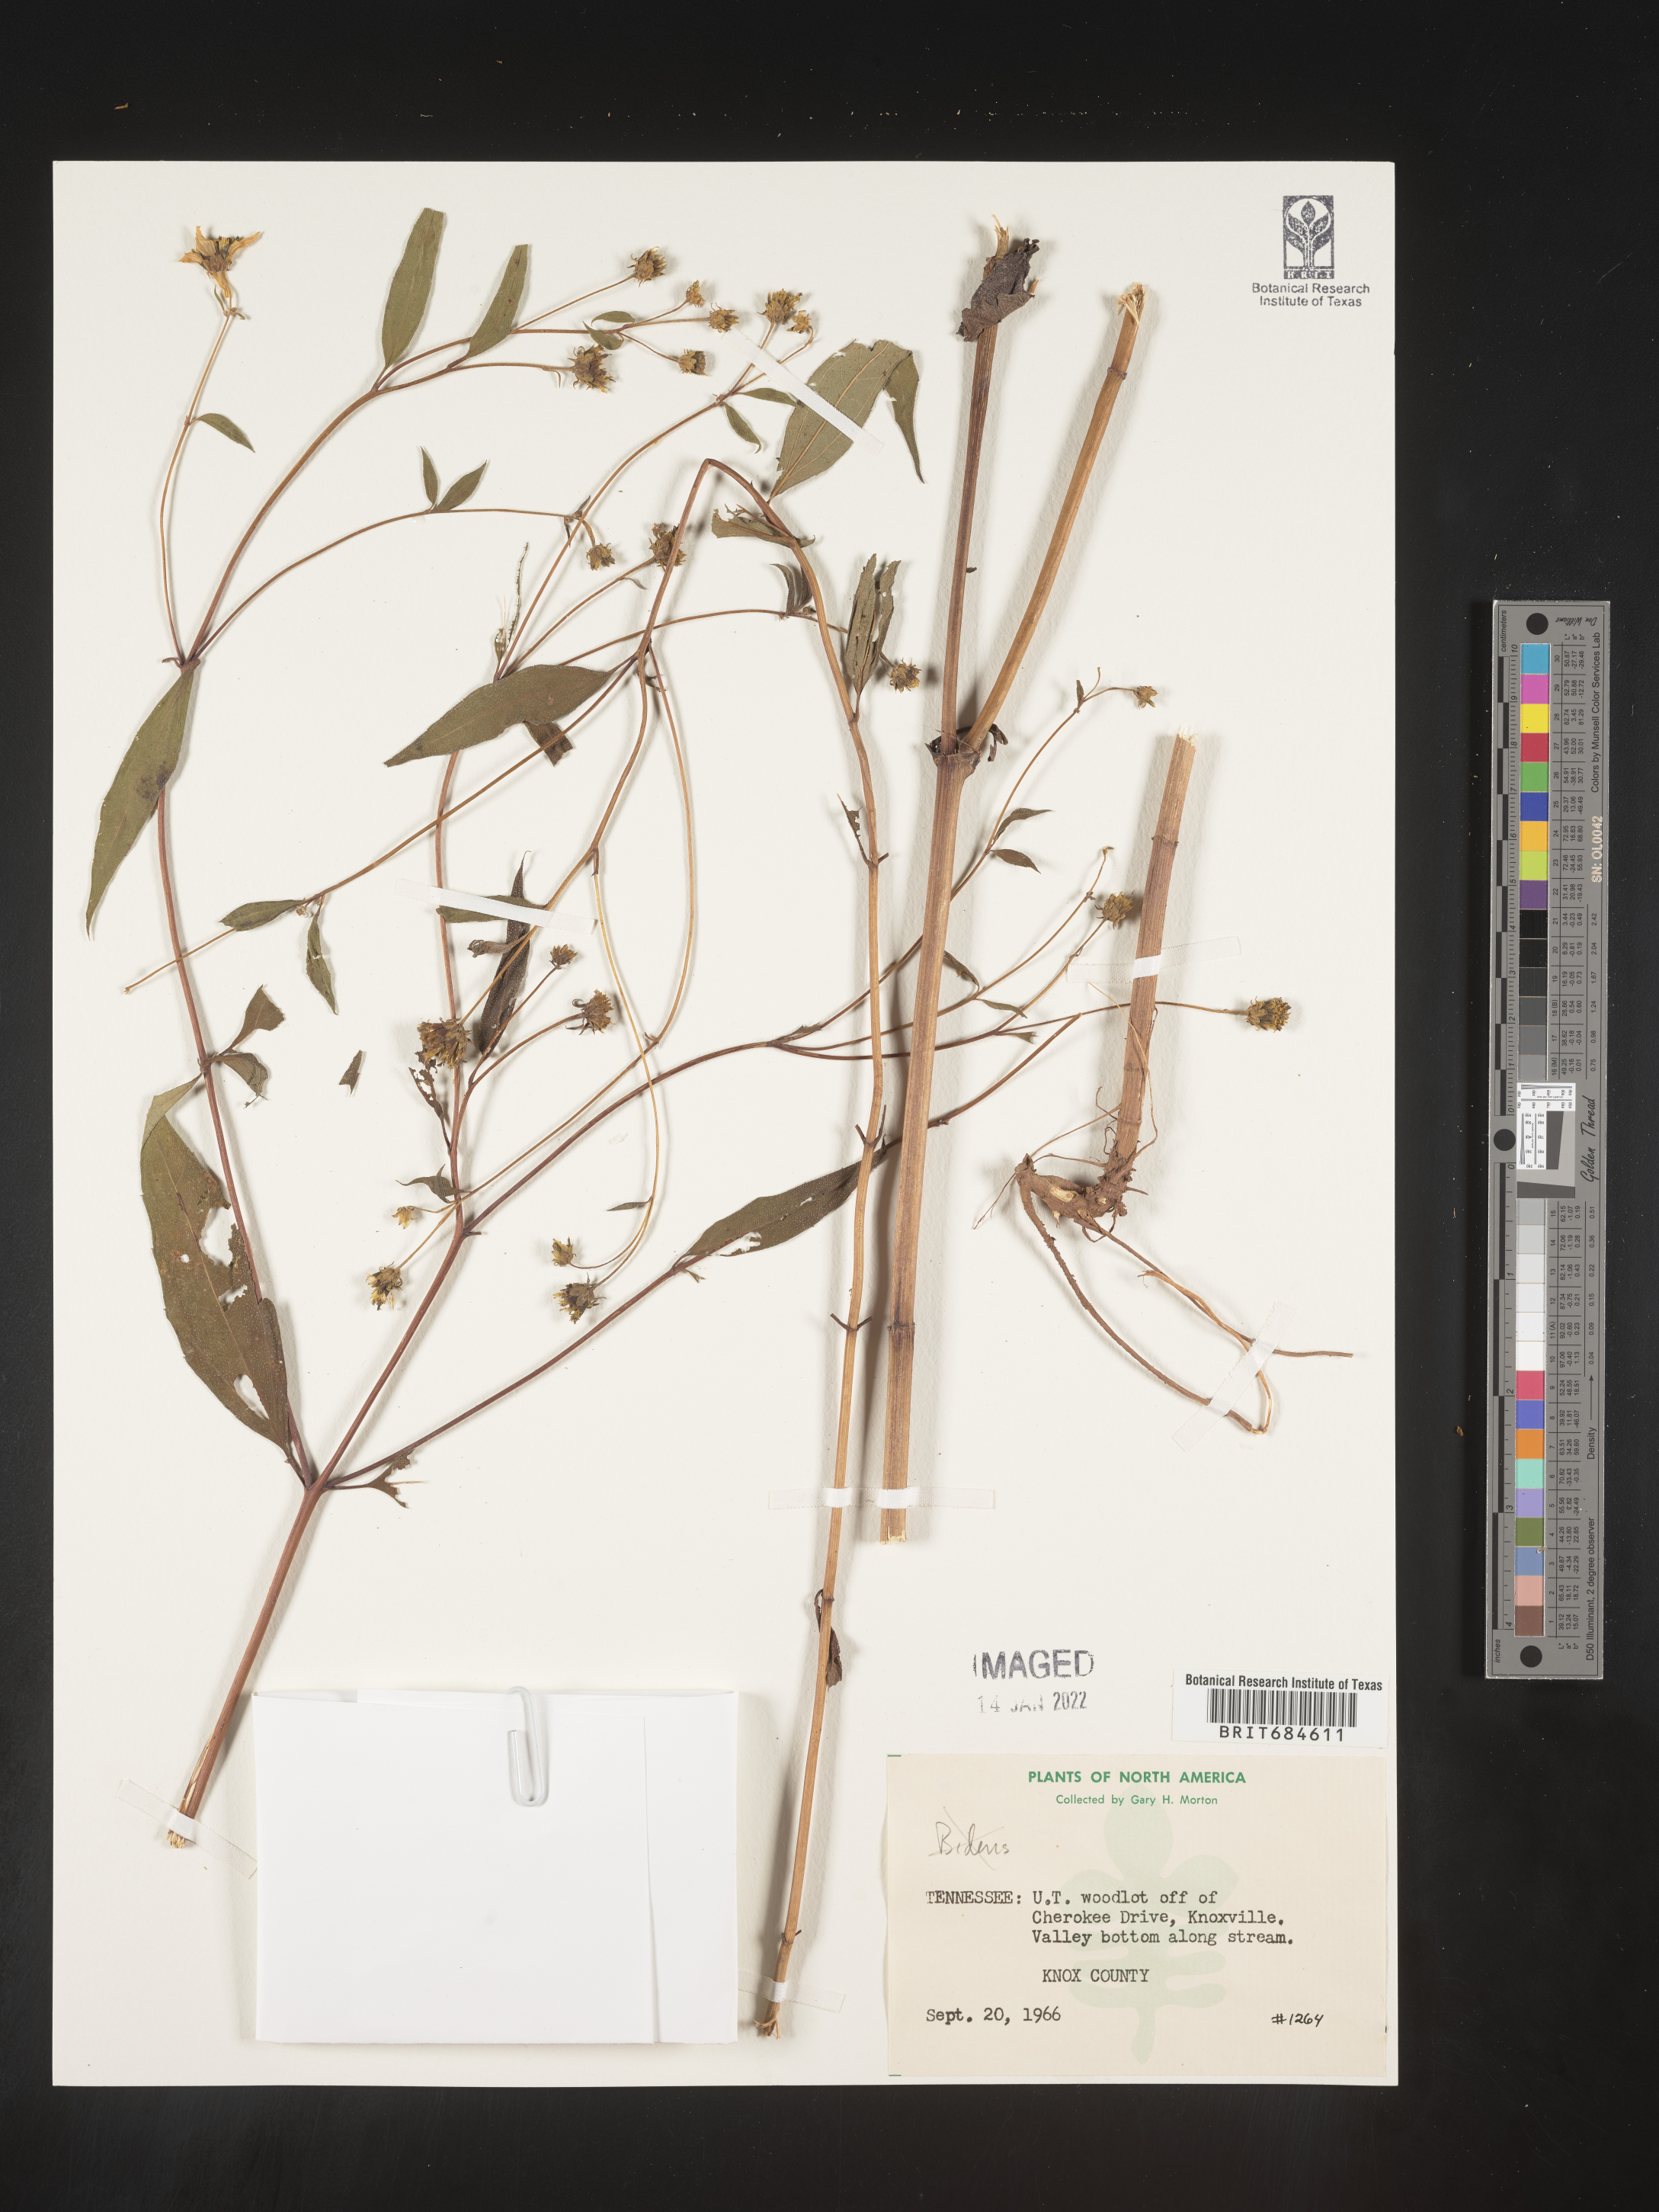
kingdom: Plantae
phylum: Tracheophyta
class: Magnoliopsida
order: Asterales
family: Asteraceae
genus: Bidens
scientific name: Bidens
